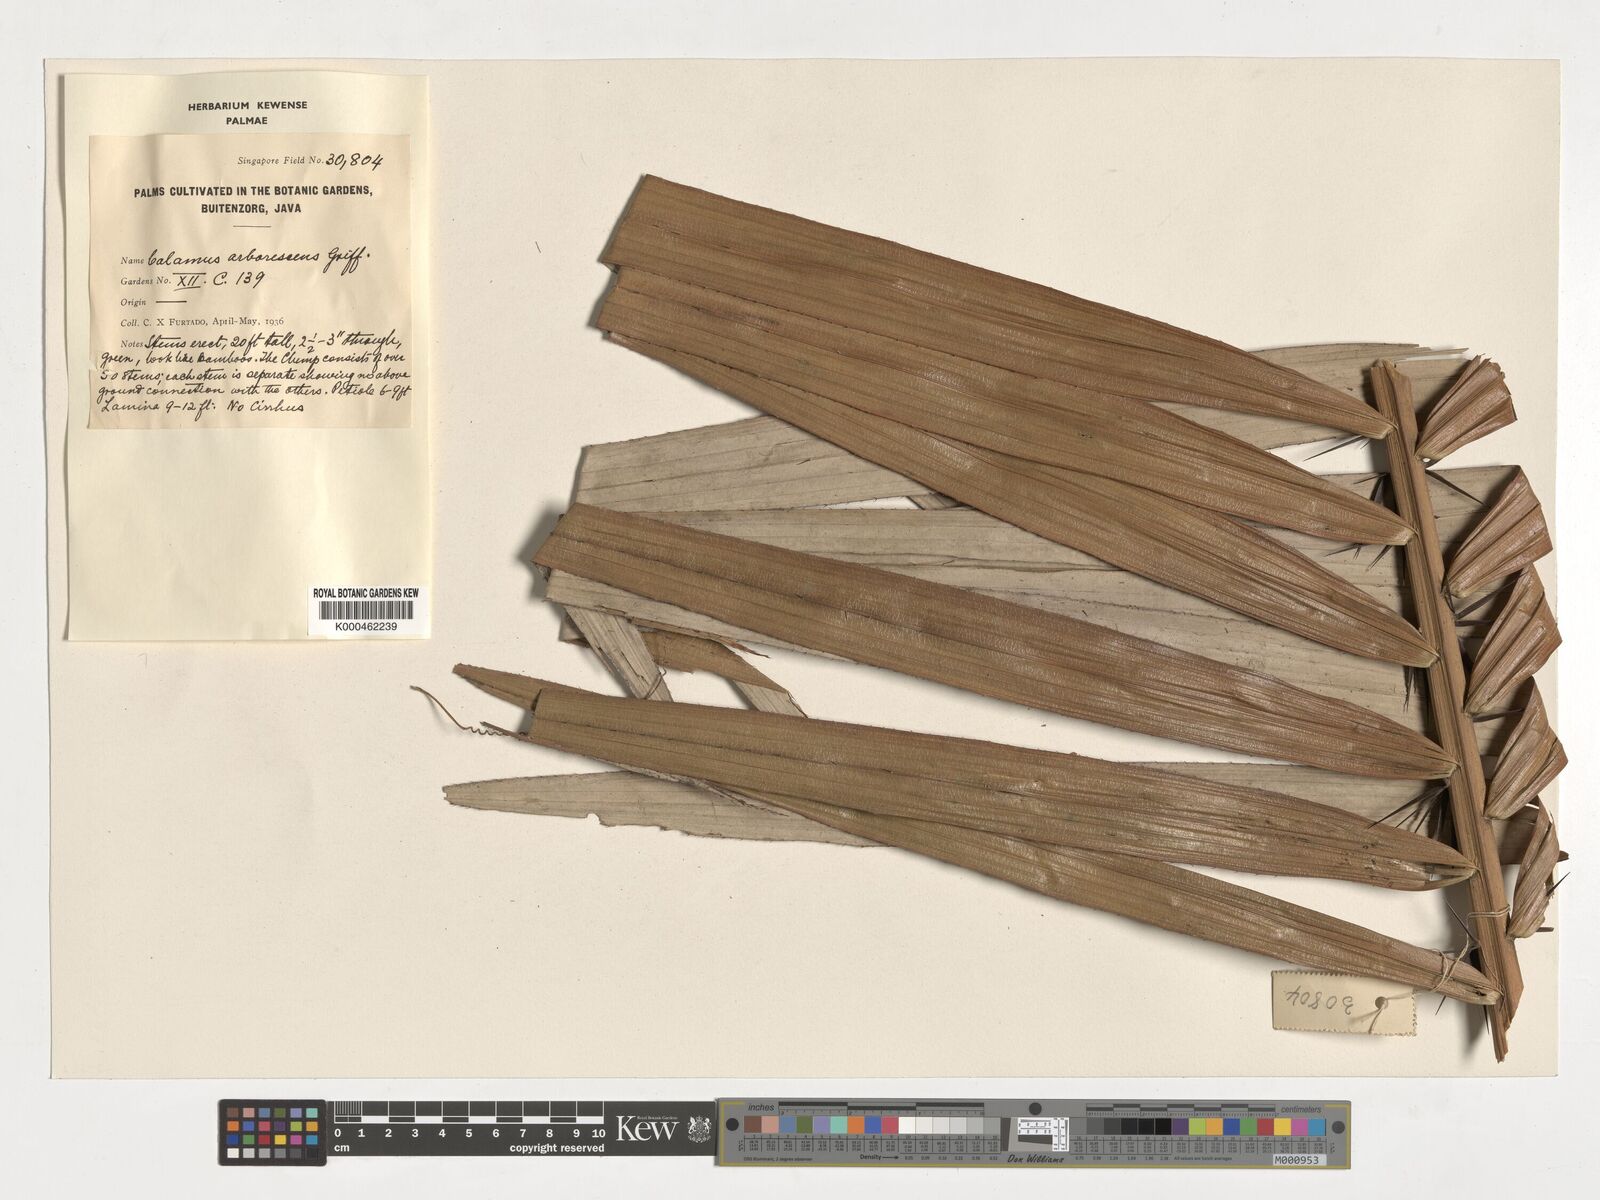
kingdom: Plantae
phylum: Tracheophyta
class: Liliopsida
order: Arecales
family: Arecaceae
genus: Calamus
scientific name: Calamus arborescens
